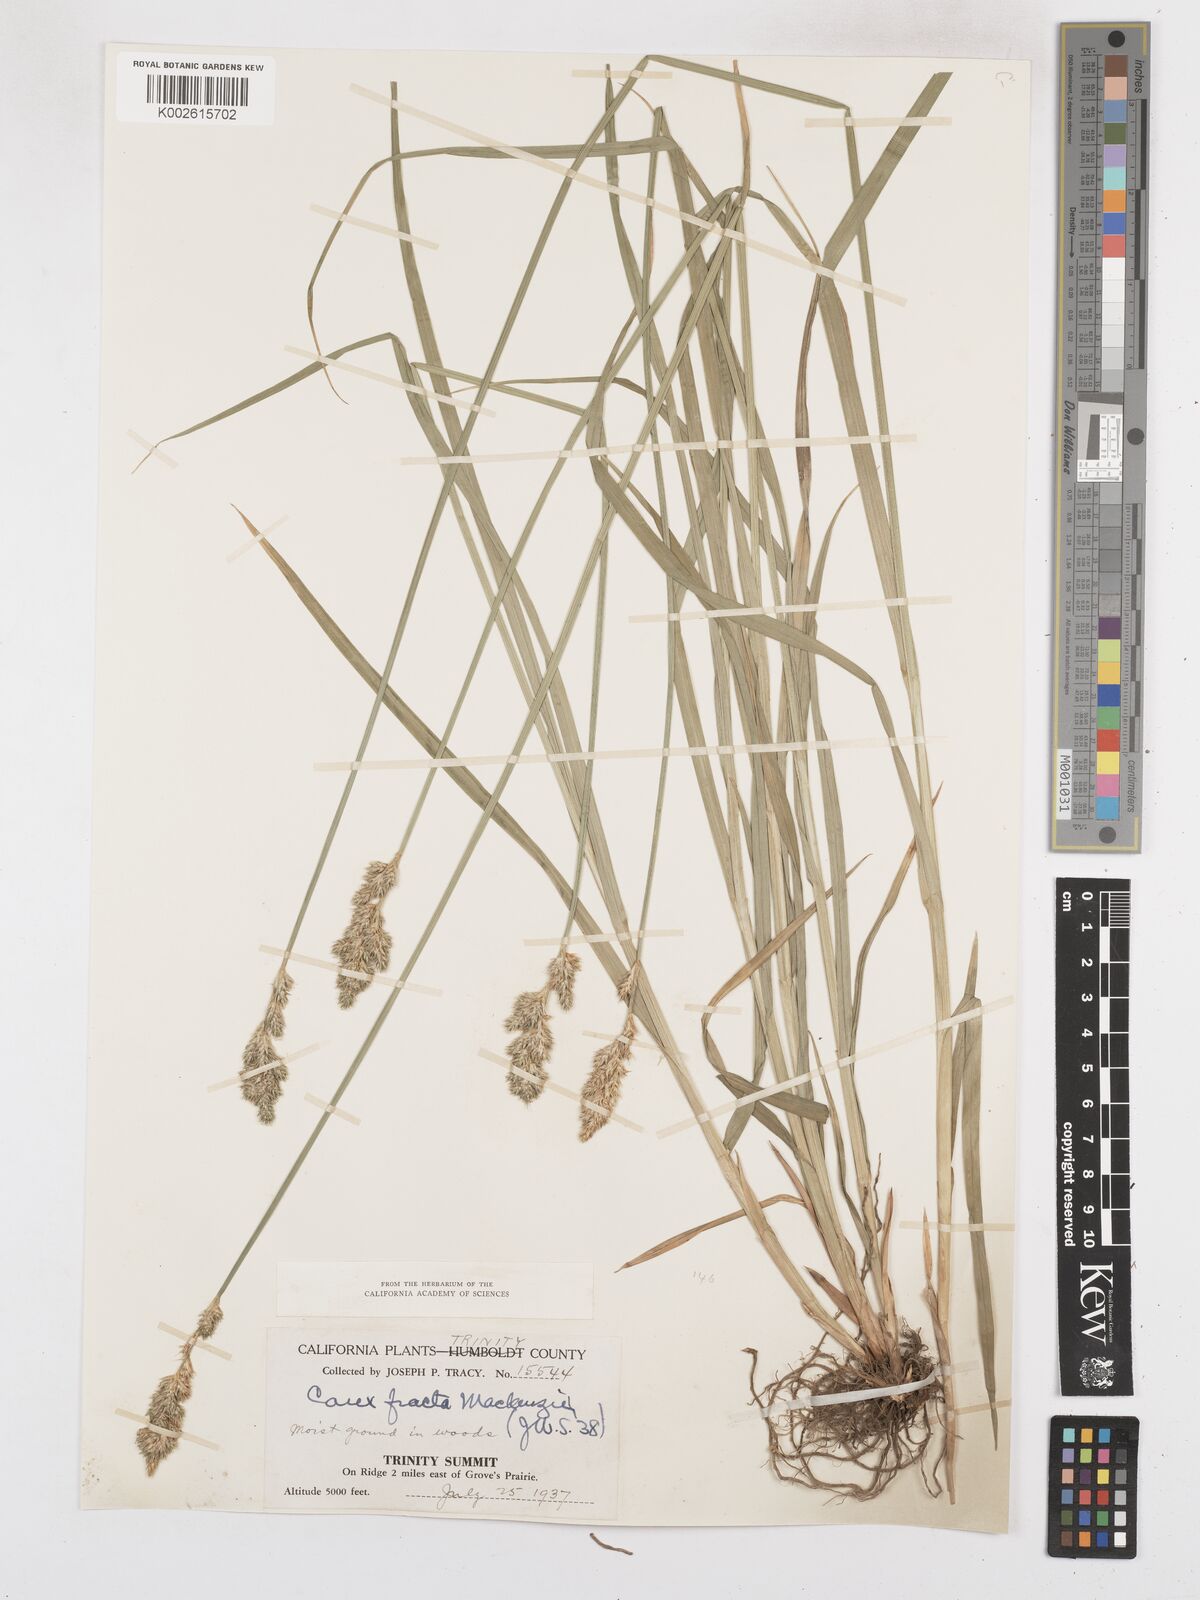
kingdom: Plantae
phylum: Tracheophyta
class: Liliopsida
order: Poales
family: Cyperaceae
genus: Carex
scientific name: Carex fracta
